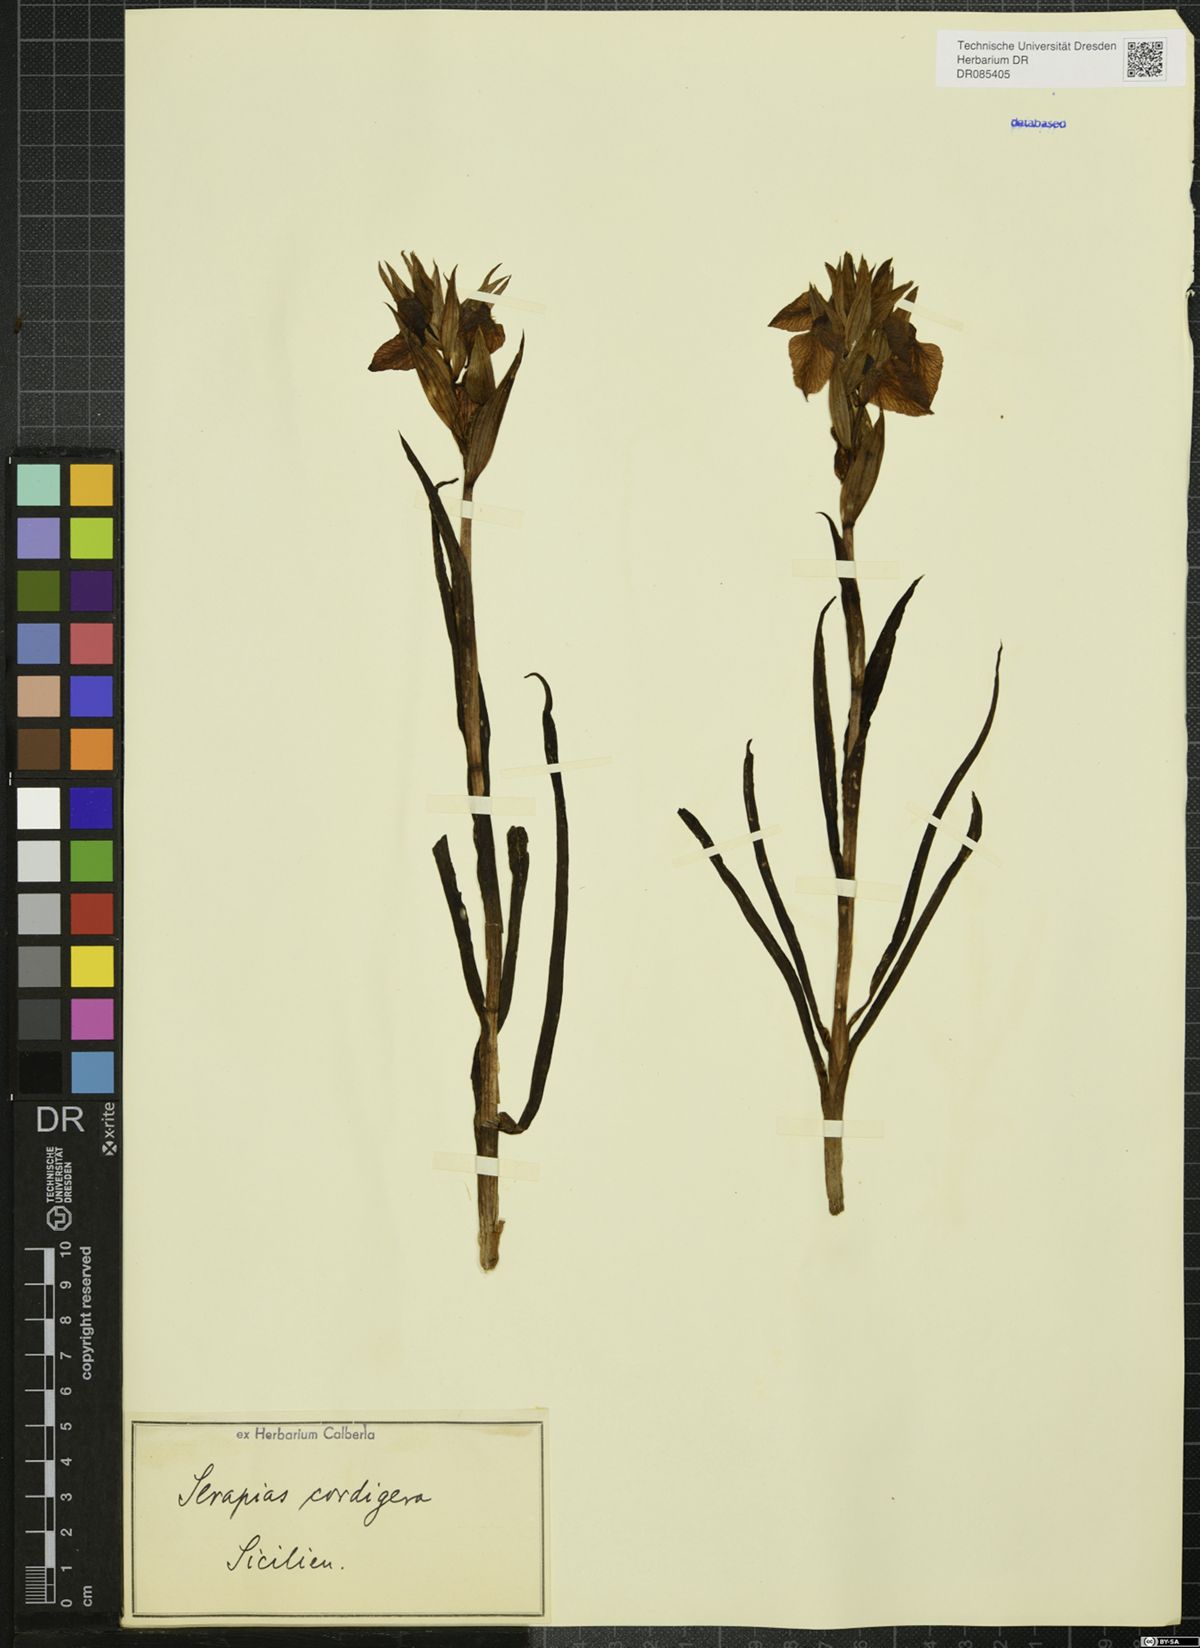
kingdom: Plantae
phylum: Tracheophyta
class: Liliopsida
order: Asparagales
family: Orchidaceae
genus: Serapias
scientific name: Serapias cordigera
